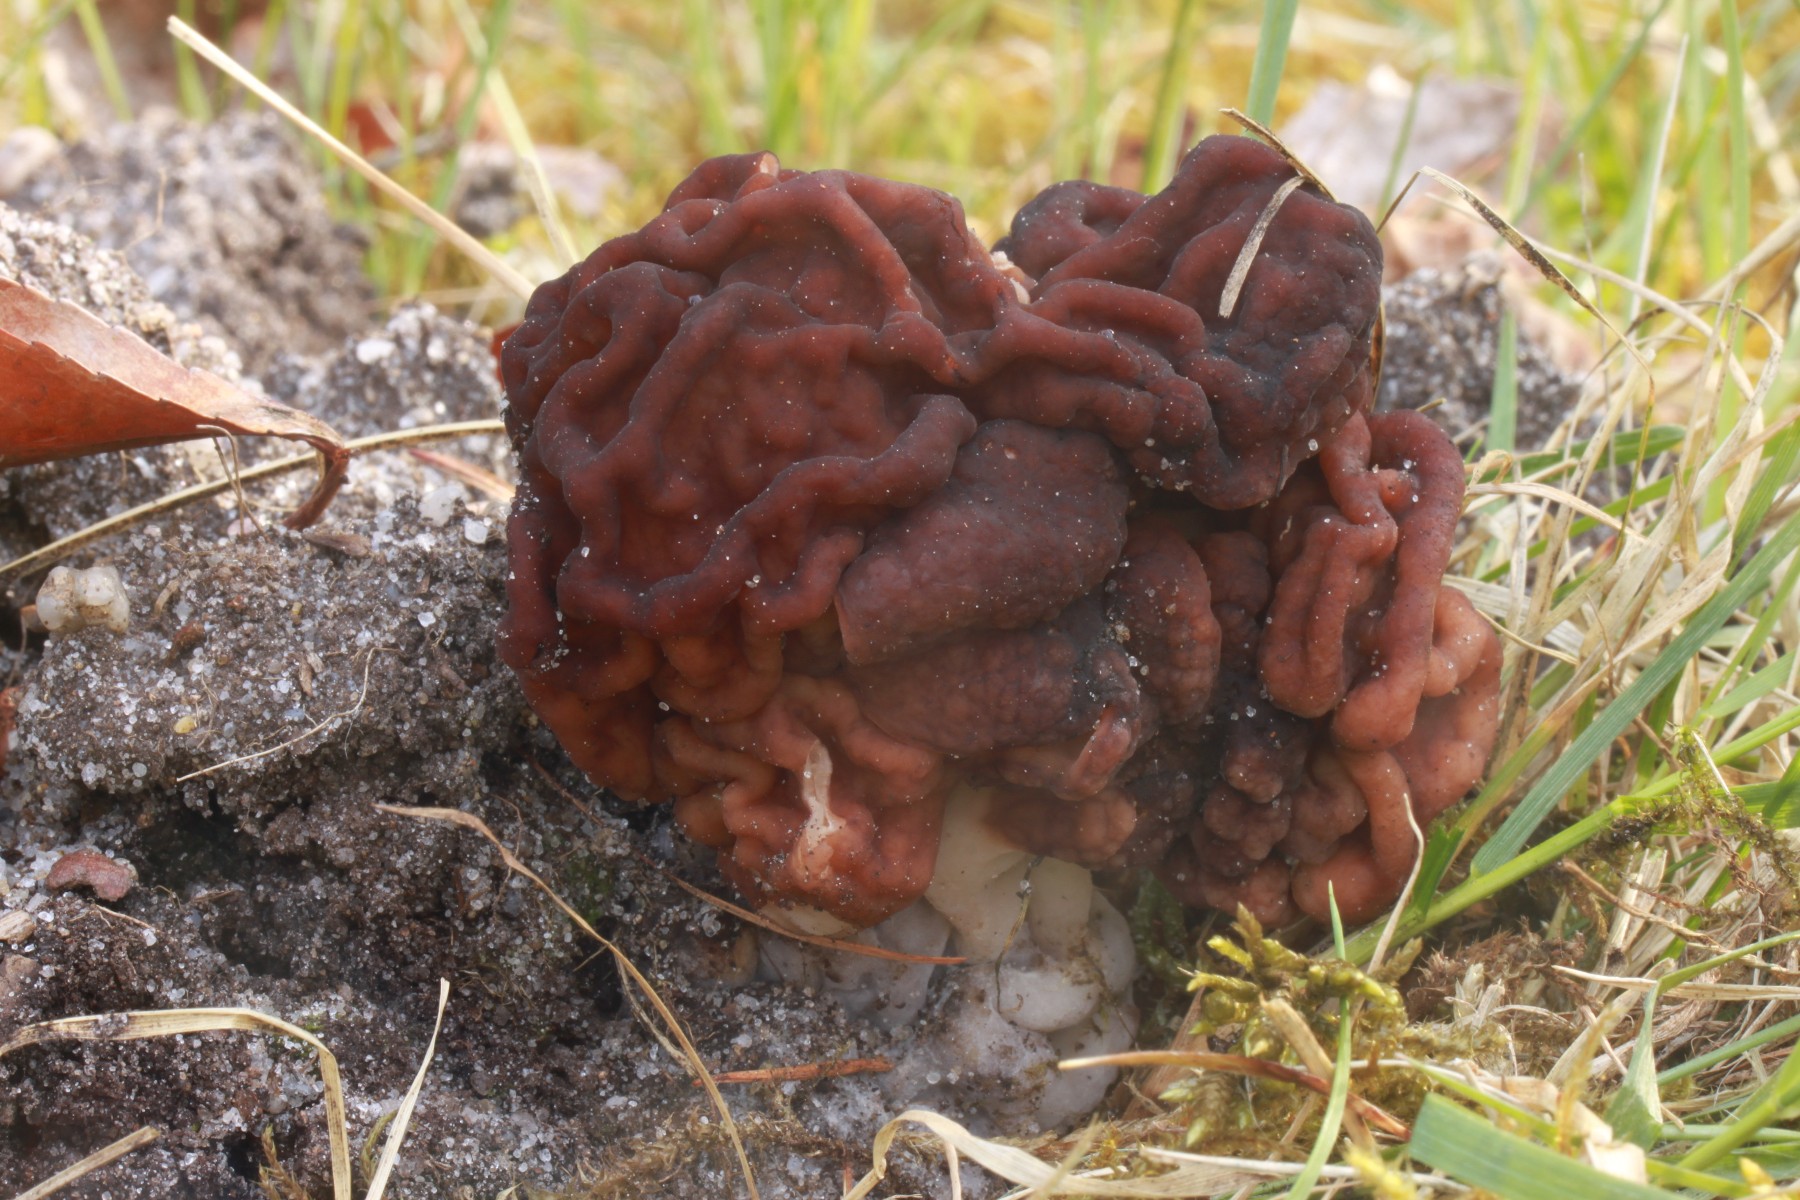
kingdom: Fungi
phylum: Ascomycota
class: Pezizomycetes
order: Pezizales
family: Discinaceae
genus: Gyromitra
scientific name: Gyromitra esculenta
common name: ægte stenmorkel
